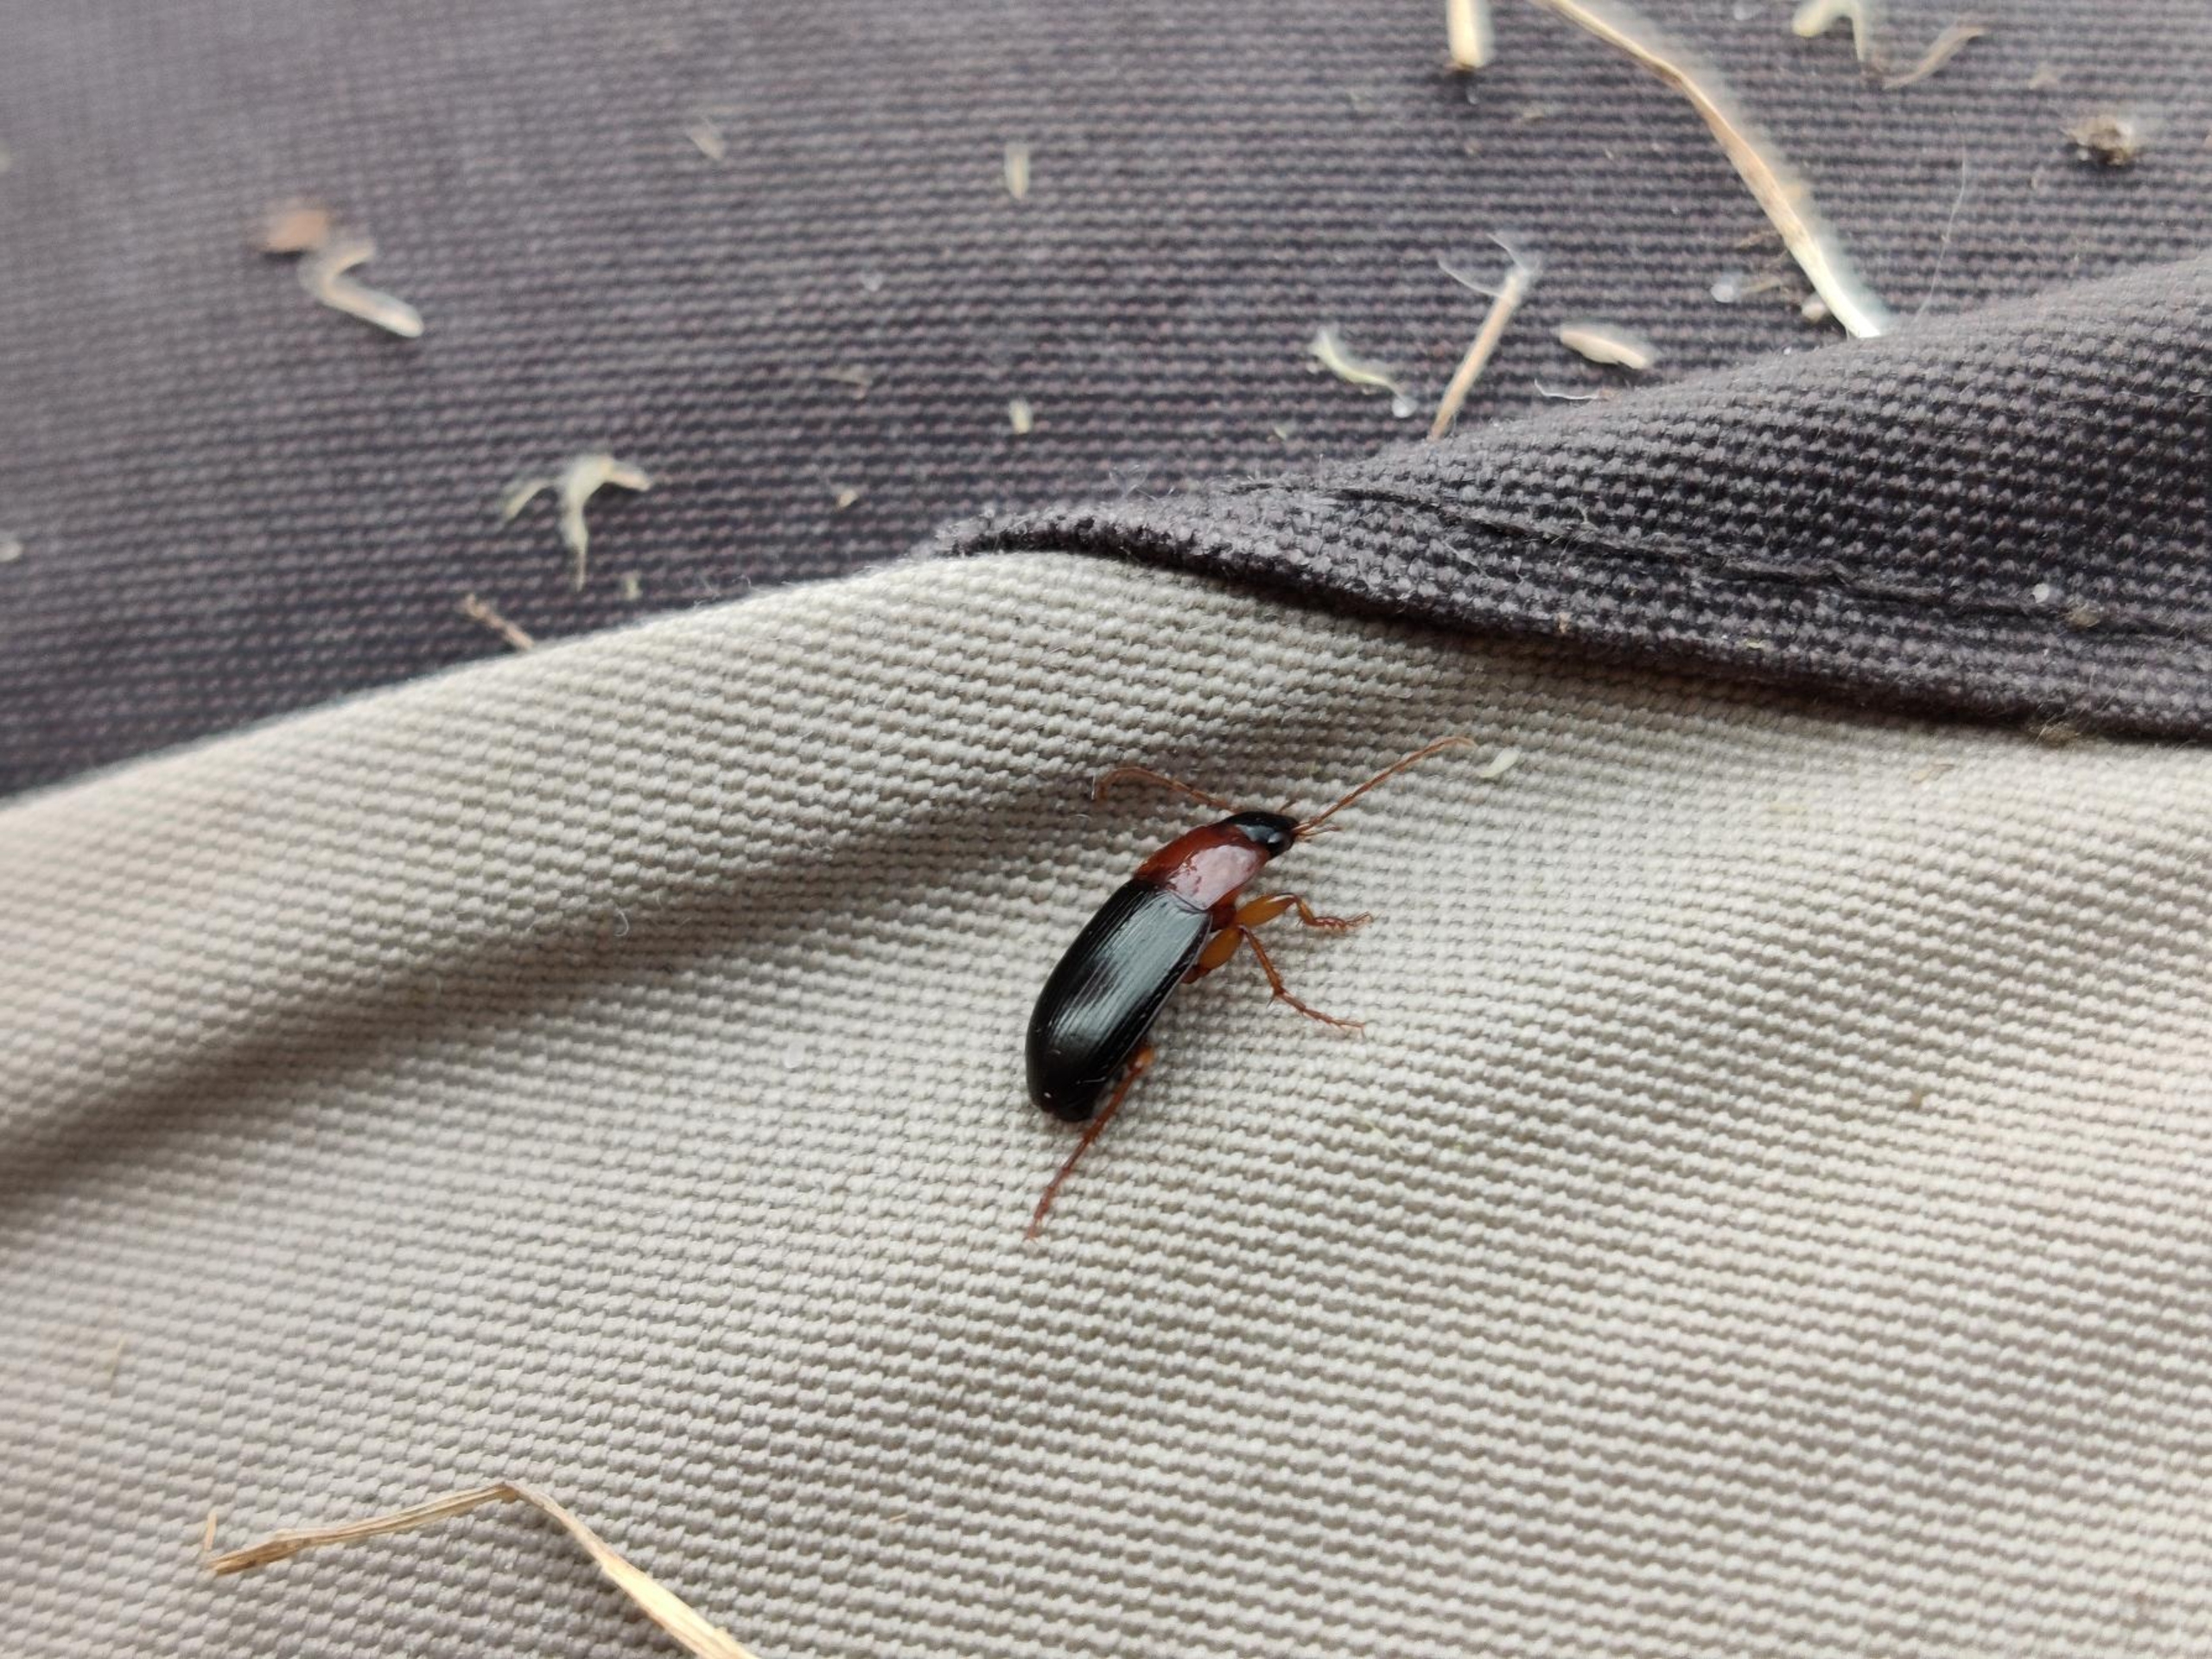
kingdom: Animalia
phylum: Arthropoda
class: Insecta
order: Coleoptera
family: Carabidae
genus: Calathus
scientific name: Calathus melanocephalus
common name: Rødbrystet torpedoløber
